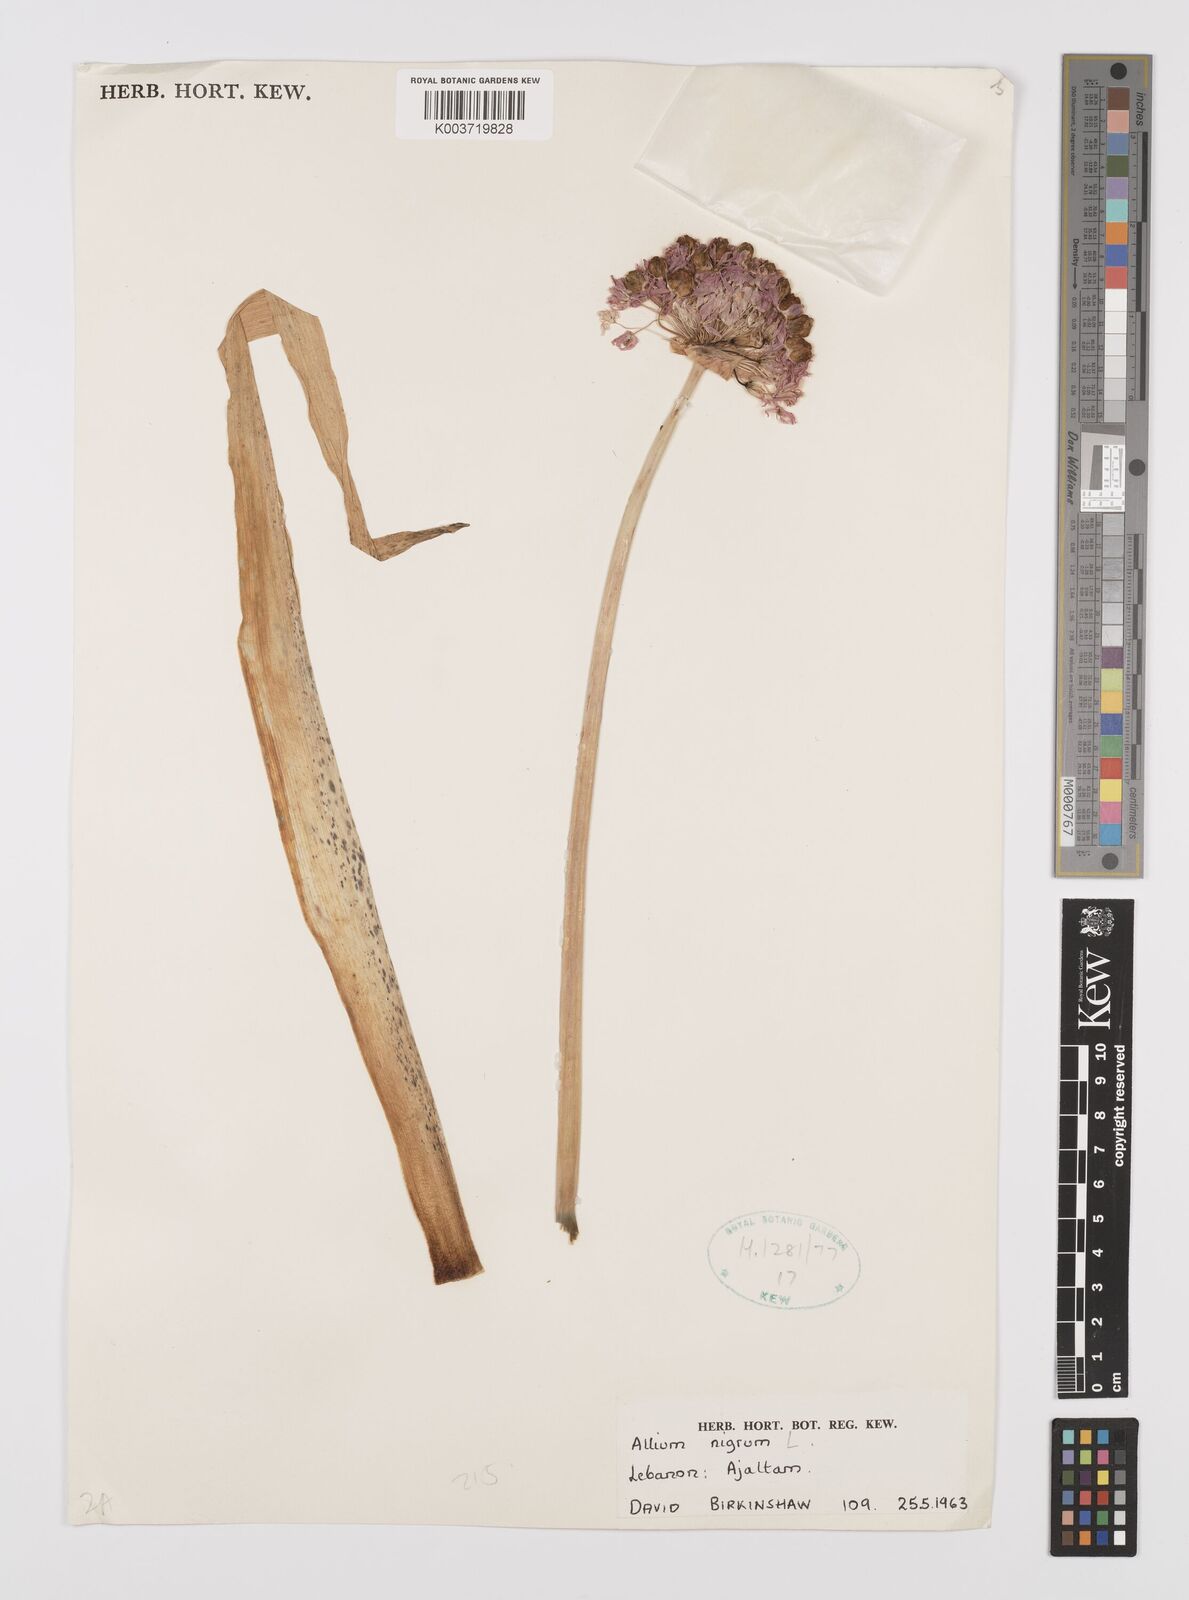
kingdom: Plantae
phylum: Tracheophyta
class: Liliopsida
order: Asparagales
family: Amaryllidaceae
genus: Allium
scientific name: Allium nigrum
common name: Black garlic
